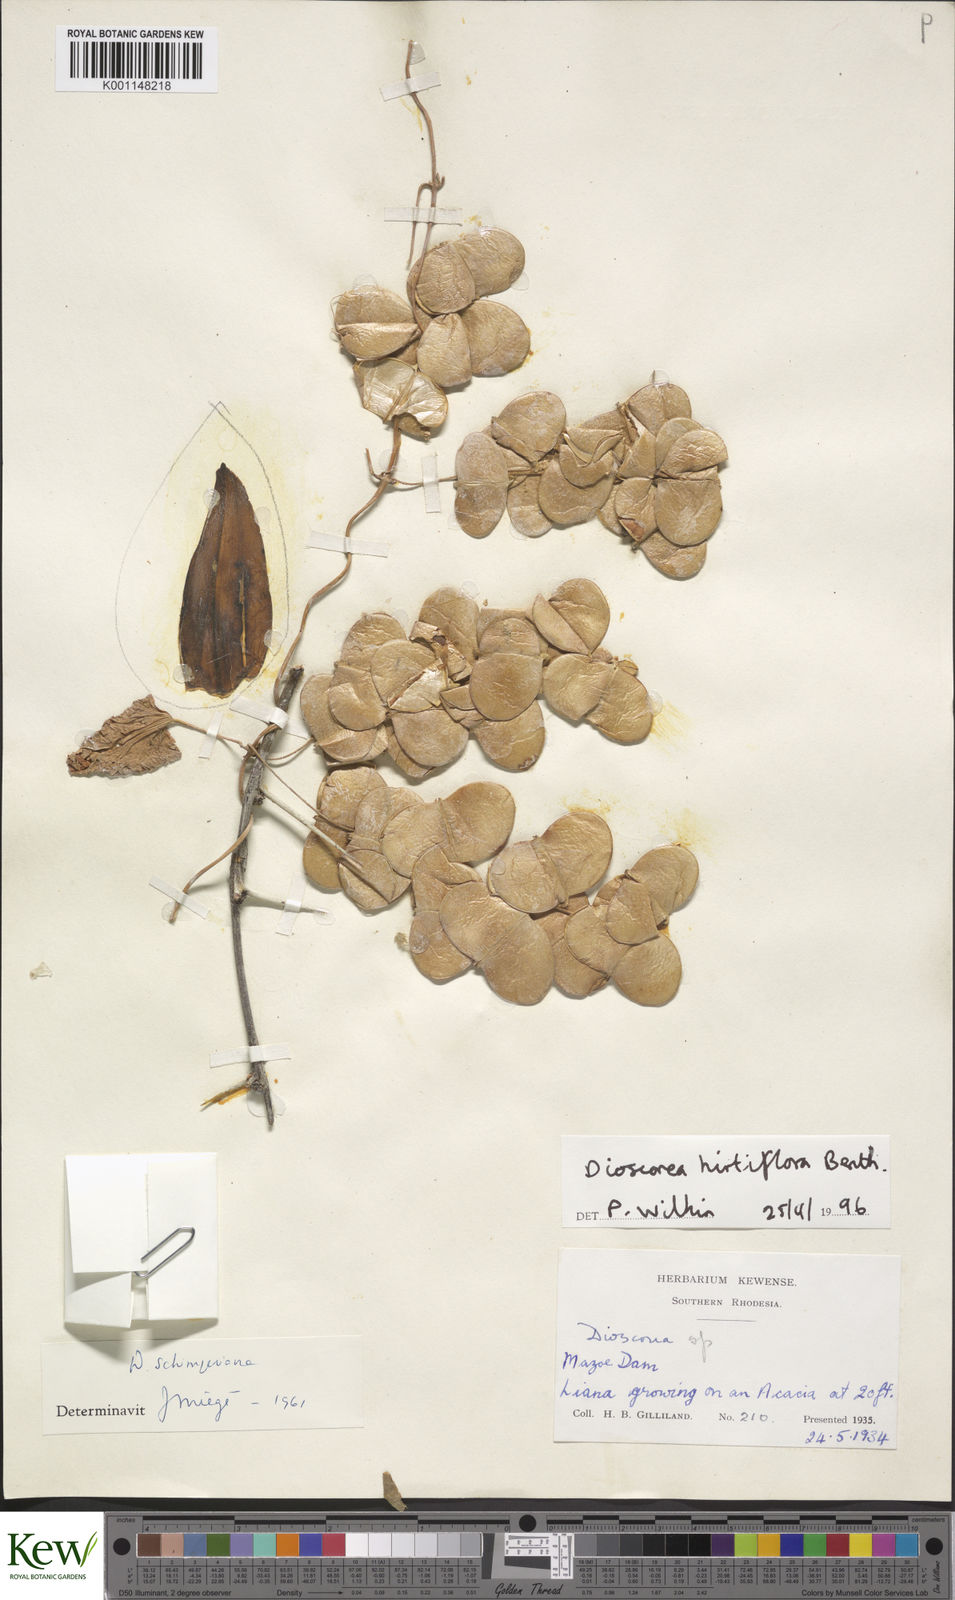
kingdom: Plantae
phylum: Tracheophyta
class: Liliopsida
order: Dioscoreales
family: Dioscoreaceae
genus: Dioscorea
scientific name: Dioscorea hirtiflora
